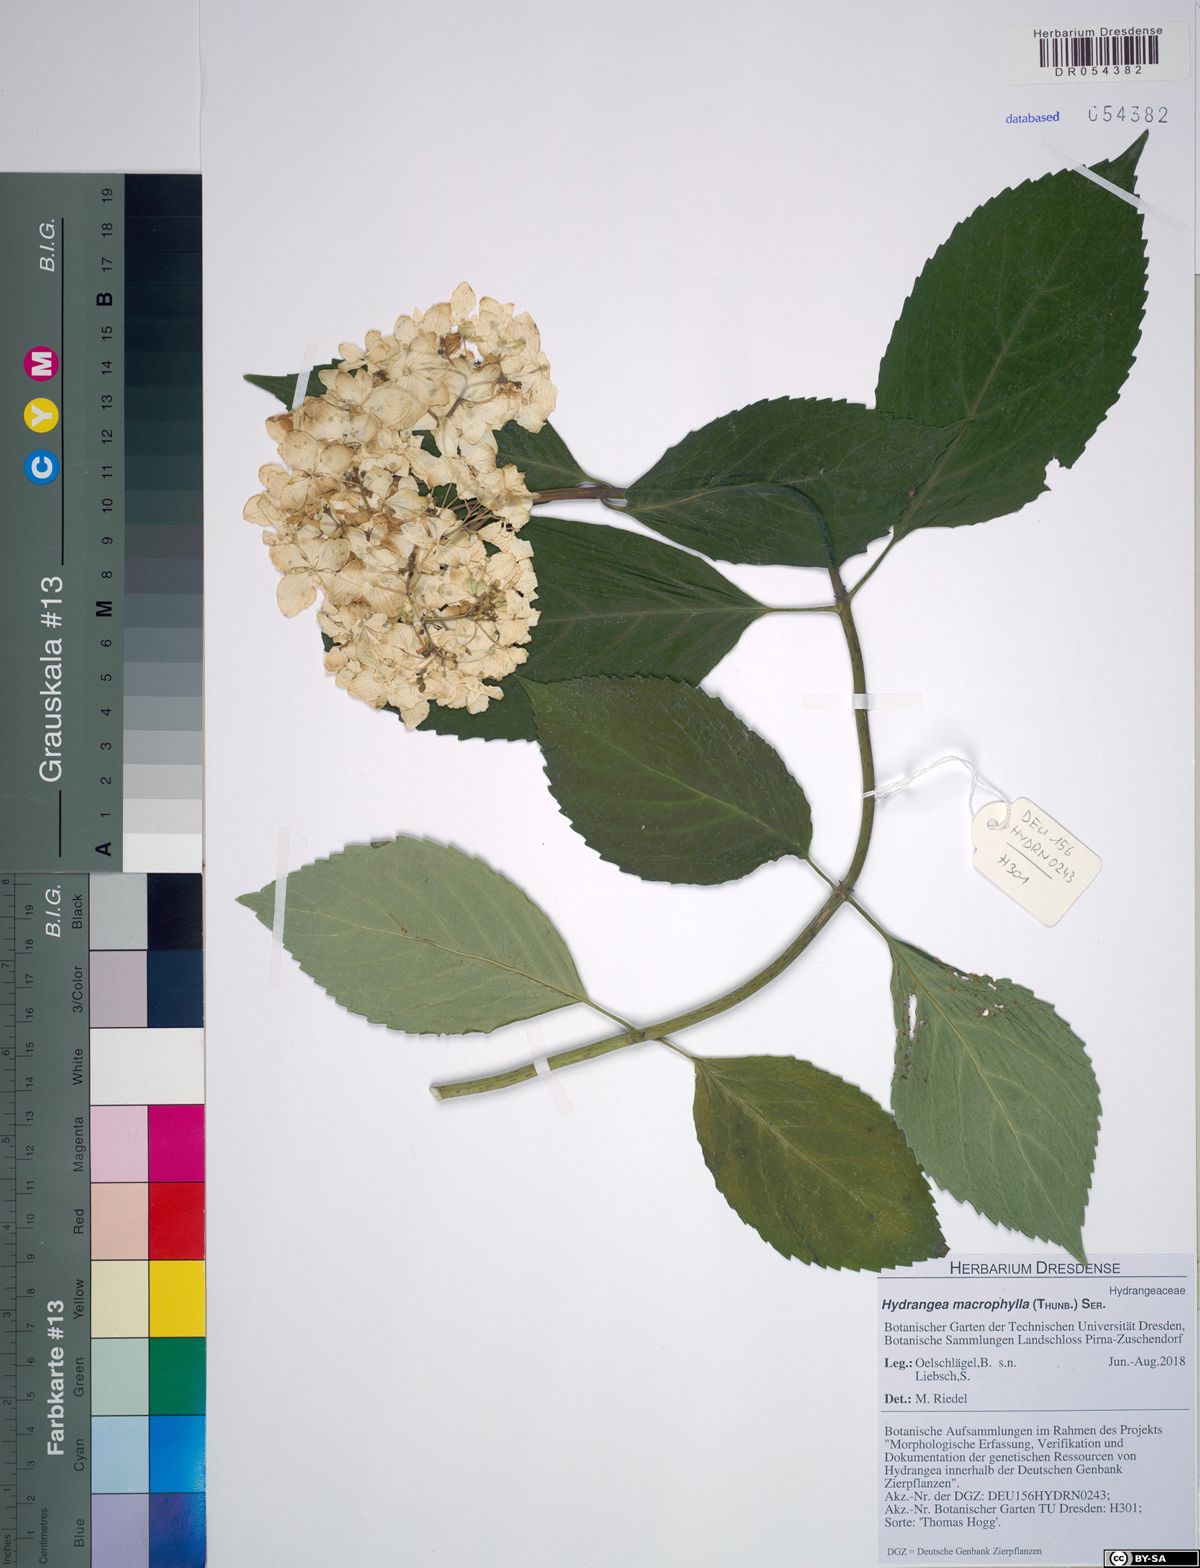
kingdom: Plantae
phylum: Tracheophyta
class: Magnoliopsida
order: Cornales
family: Hydrangeaceae
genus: Hydrangea
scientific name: Hydrangea macrophylla
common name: Hydrangea
